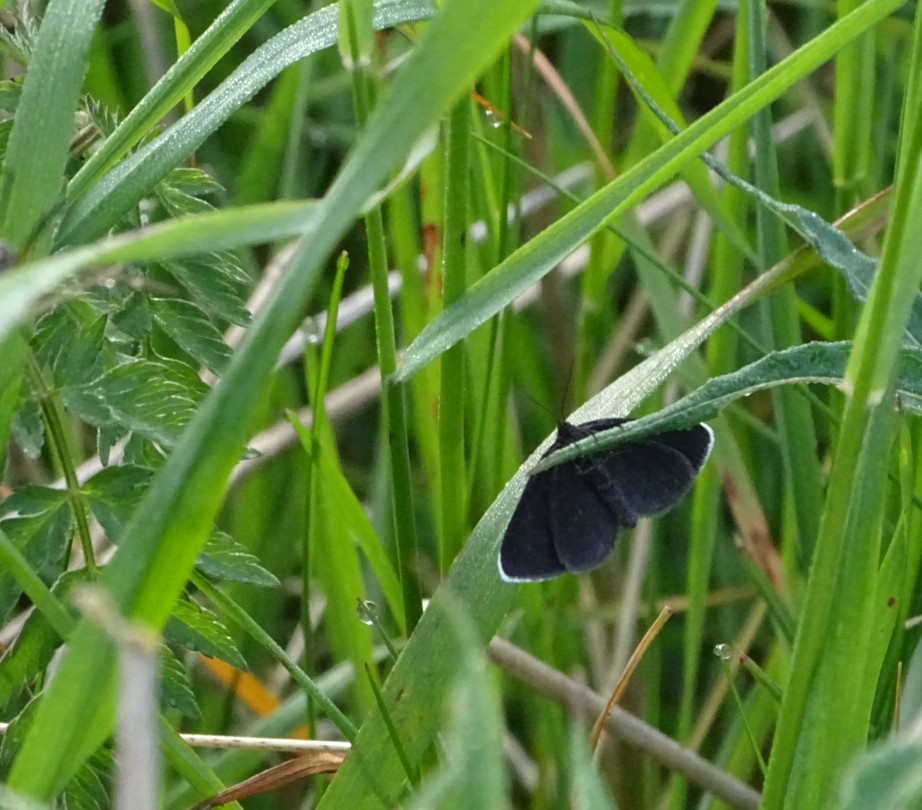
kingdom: Animalia
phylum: Arthropoda
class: Insecta
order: Lepidoptera
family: Geometridae
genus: Odezia
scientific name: Odezia atrata
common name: Sort måler
